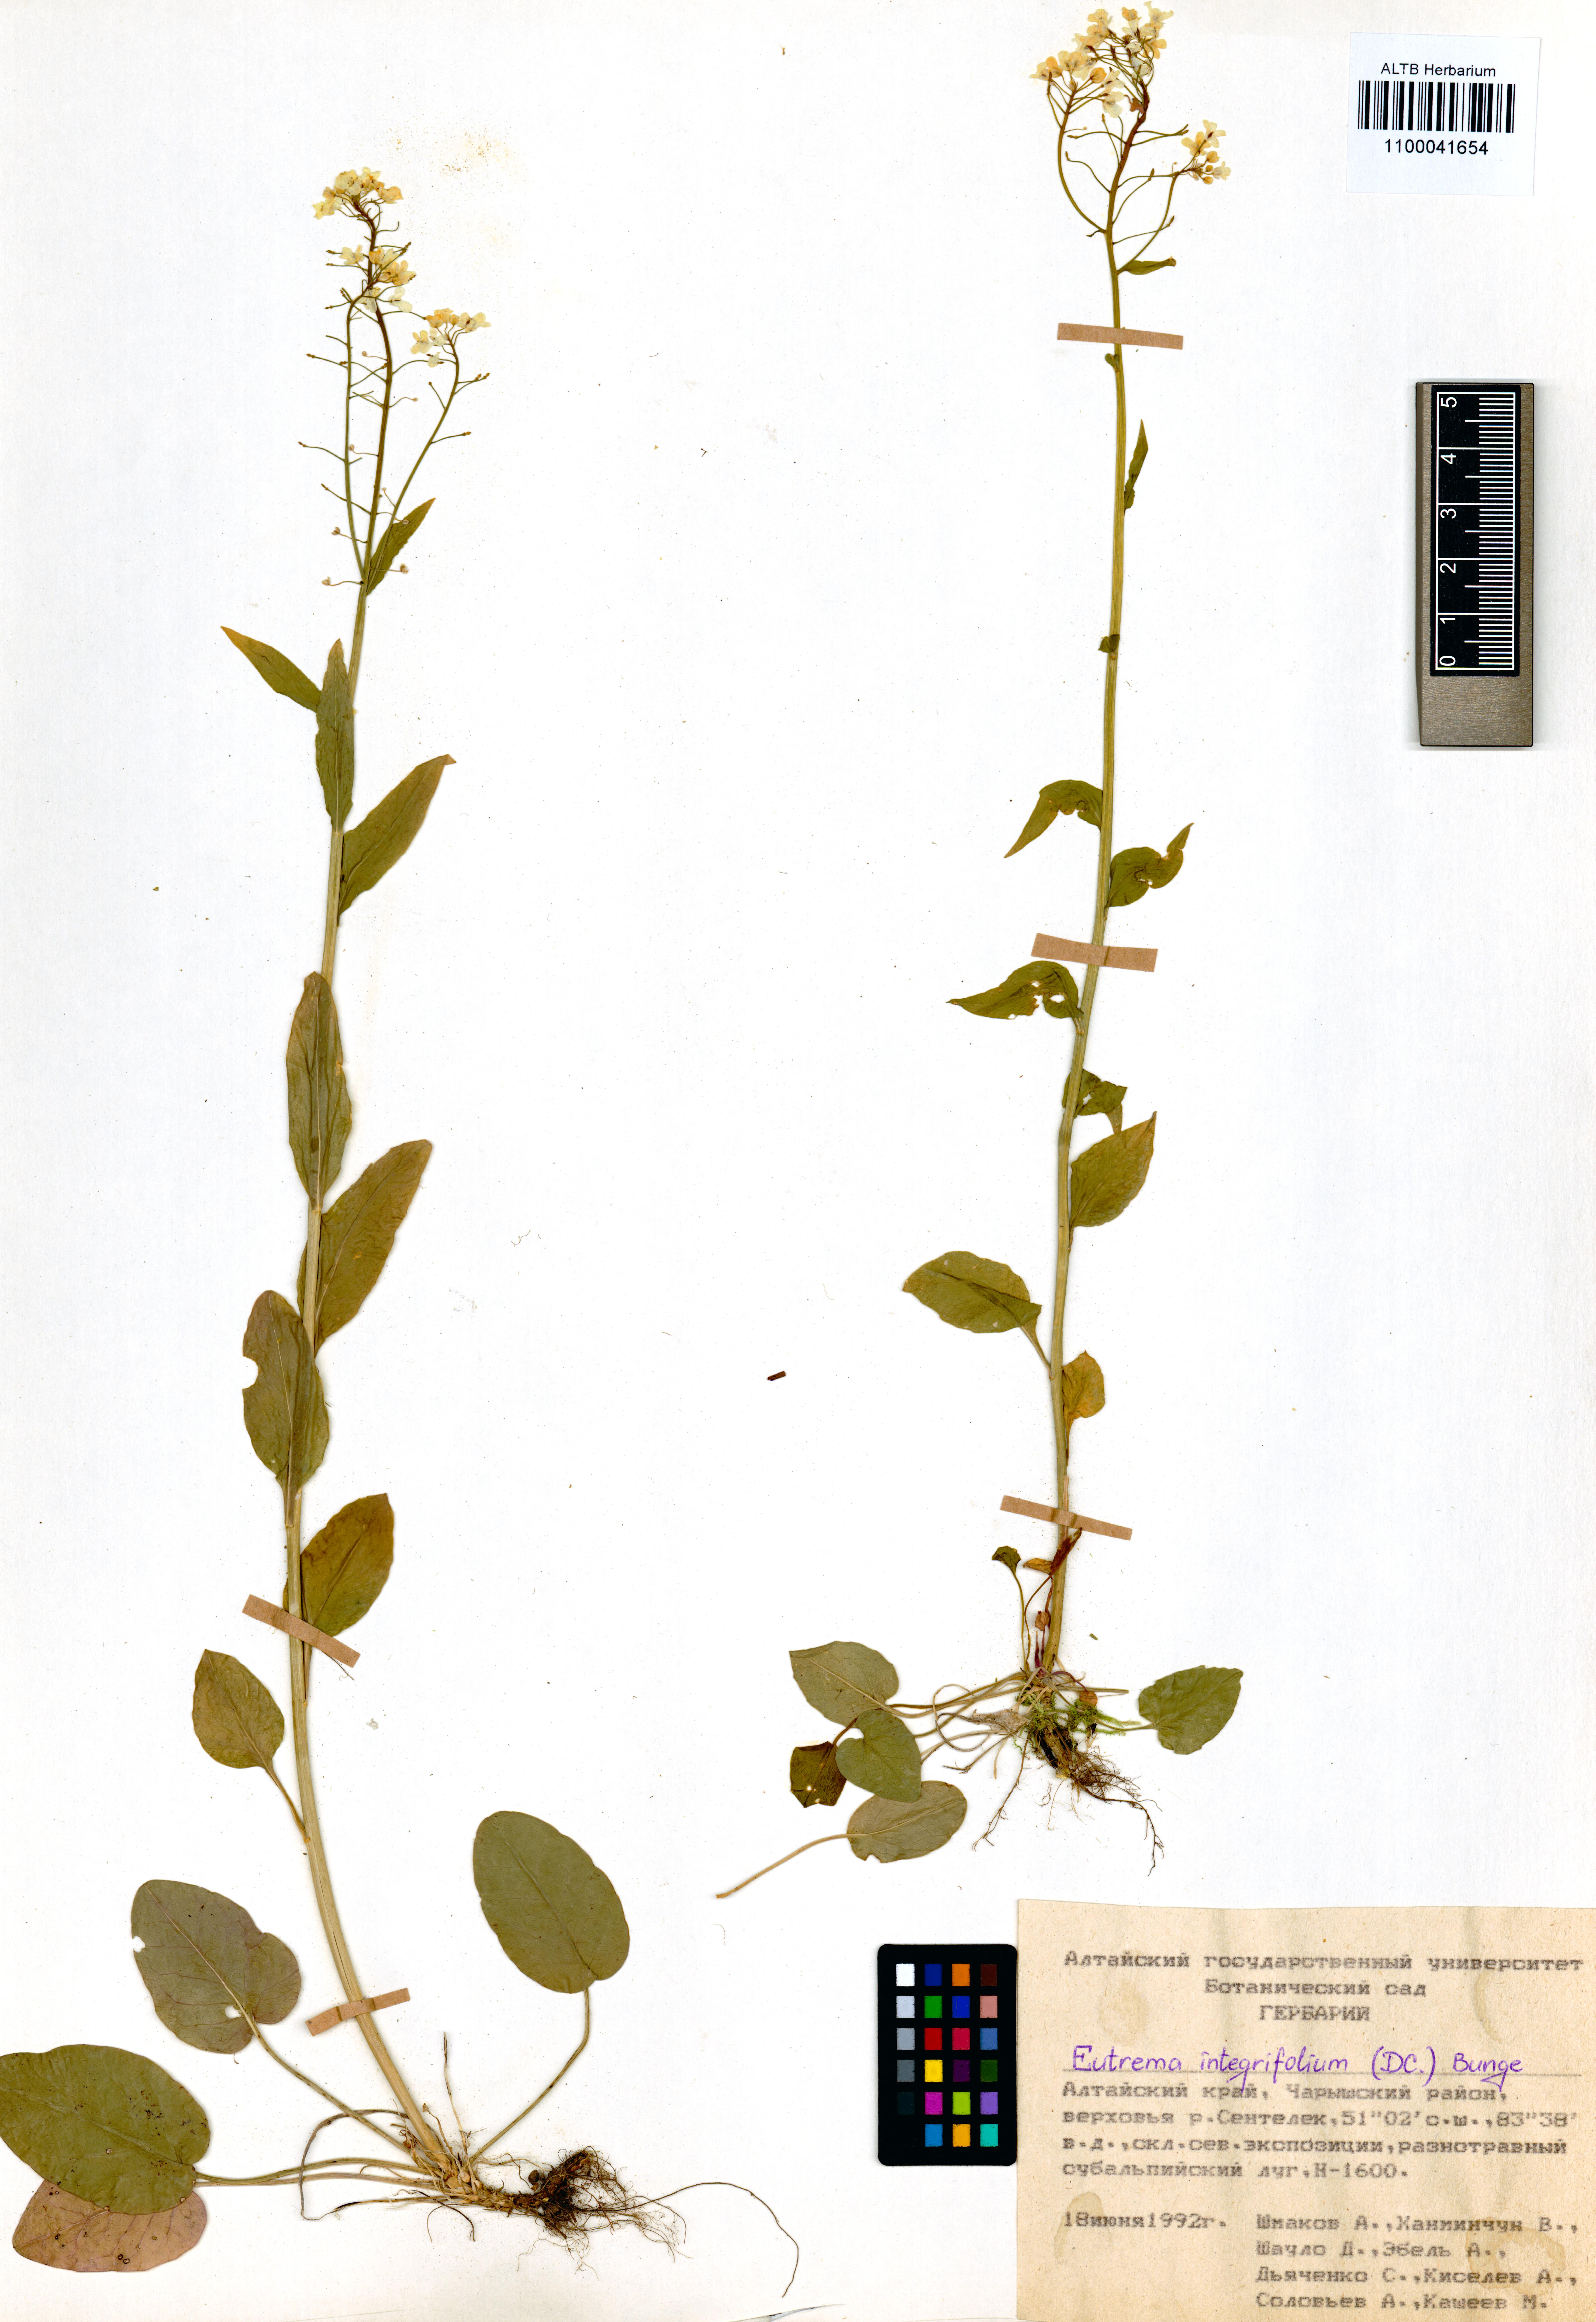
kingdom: Plantae
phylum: Tracheophyta
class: Magnoliopsida
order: Brassicales
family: Brassicaceae
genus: Eutrema
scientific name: Eutrema integrifolium
